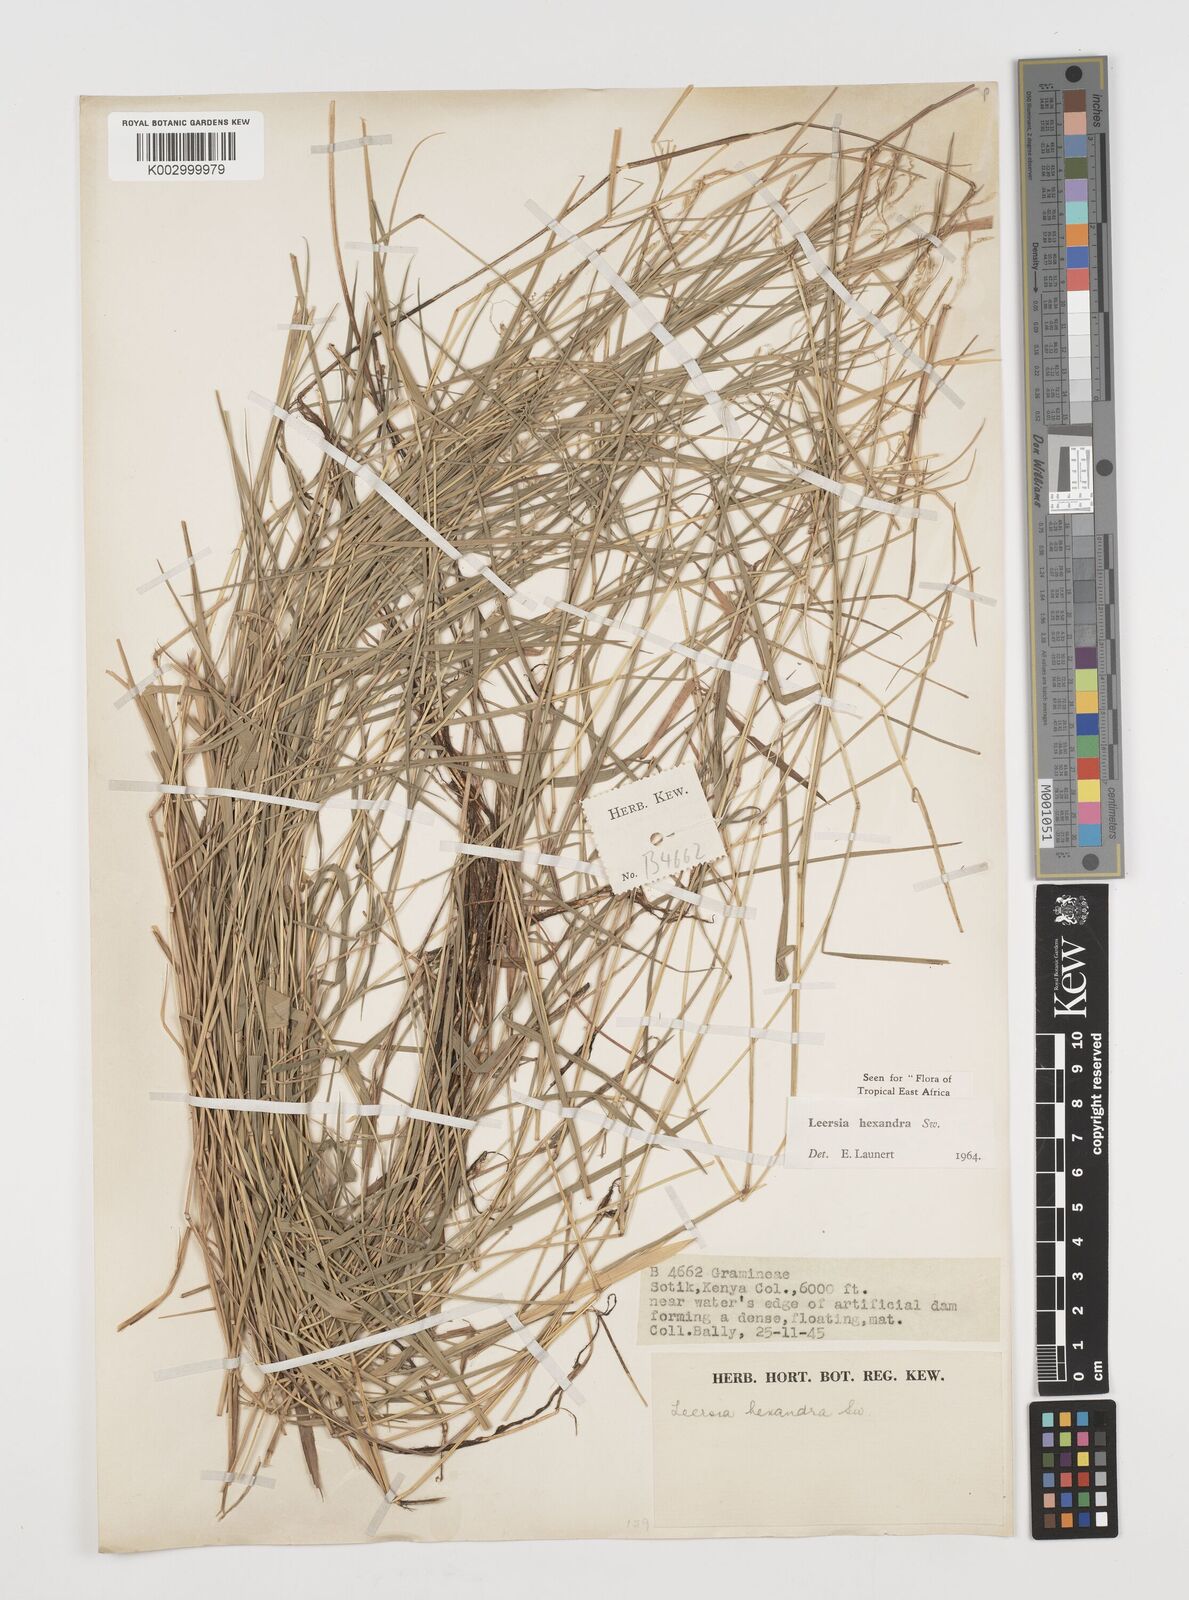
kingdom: Plantae
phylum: Tracheophyta
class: Liliopsida
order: Poales
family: Poaceae
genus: Leersia
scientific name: Leersia hexandra
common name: Southern cut grass
